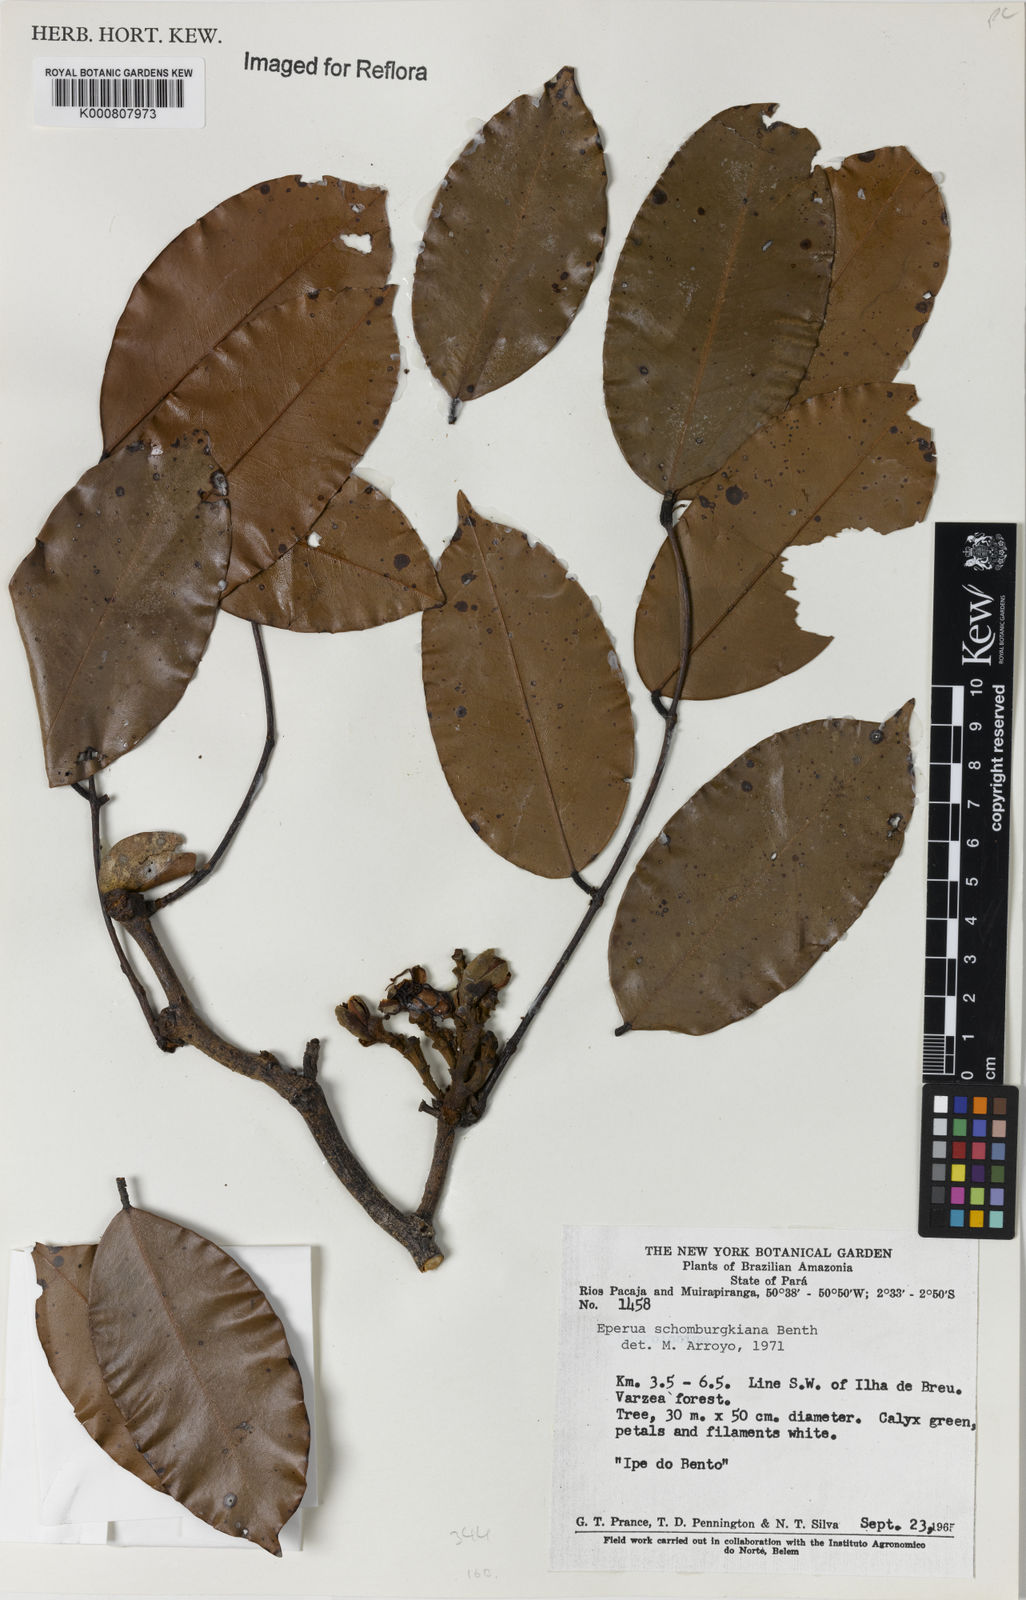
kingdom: Plantae
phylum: Tracheophyta
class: Magnoliopsida
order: Fabales
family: Fabaceae
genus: Eperua
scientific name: Eperua schomburgkiana
